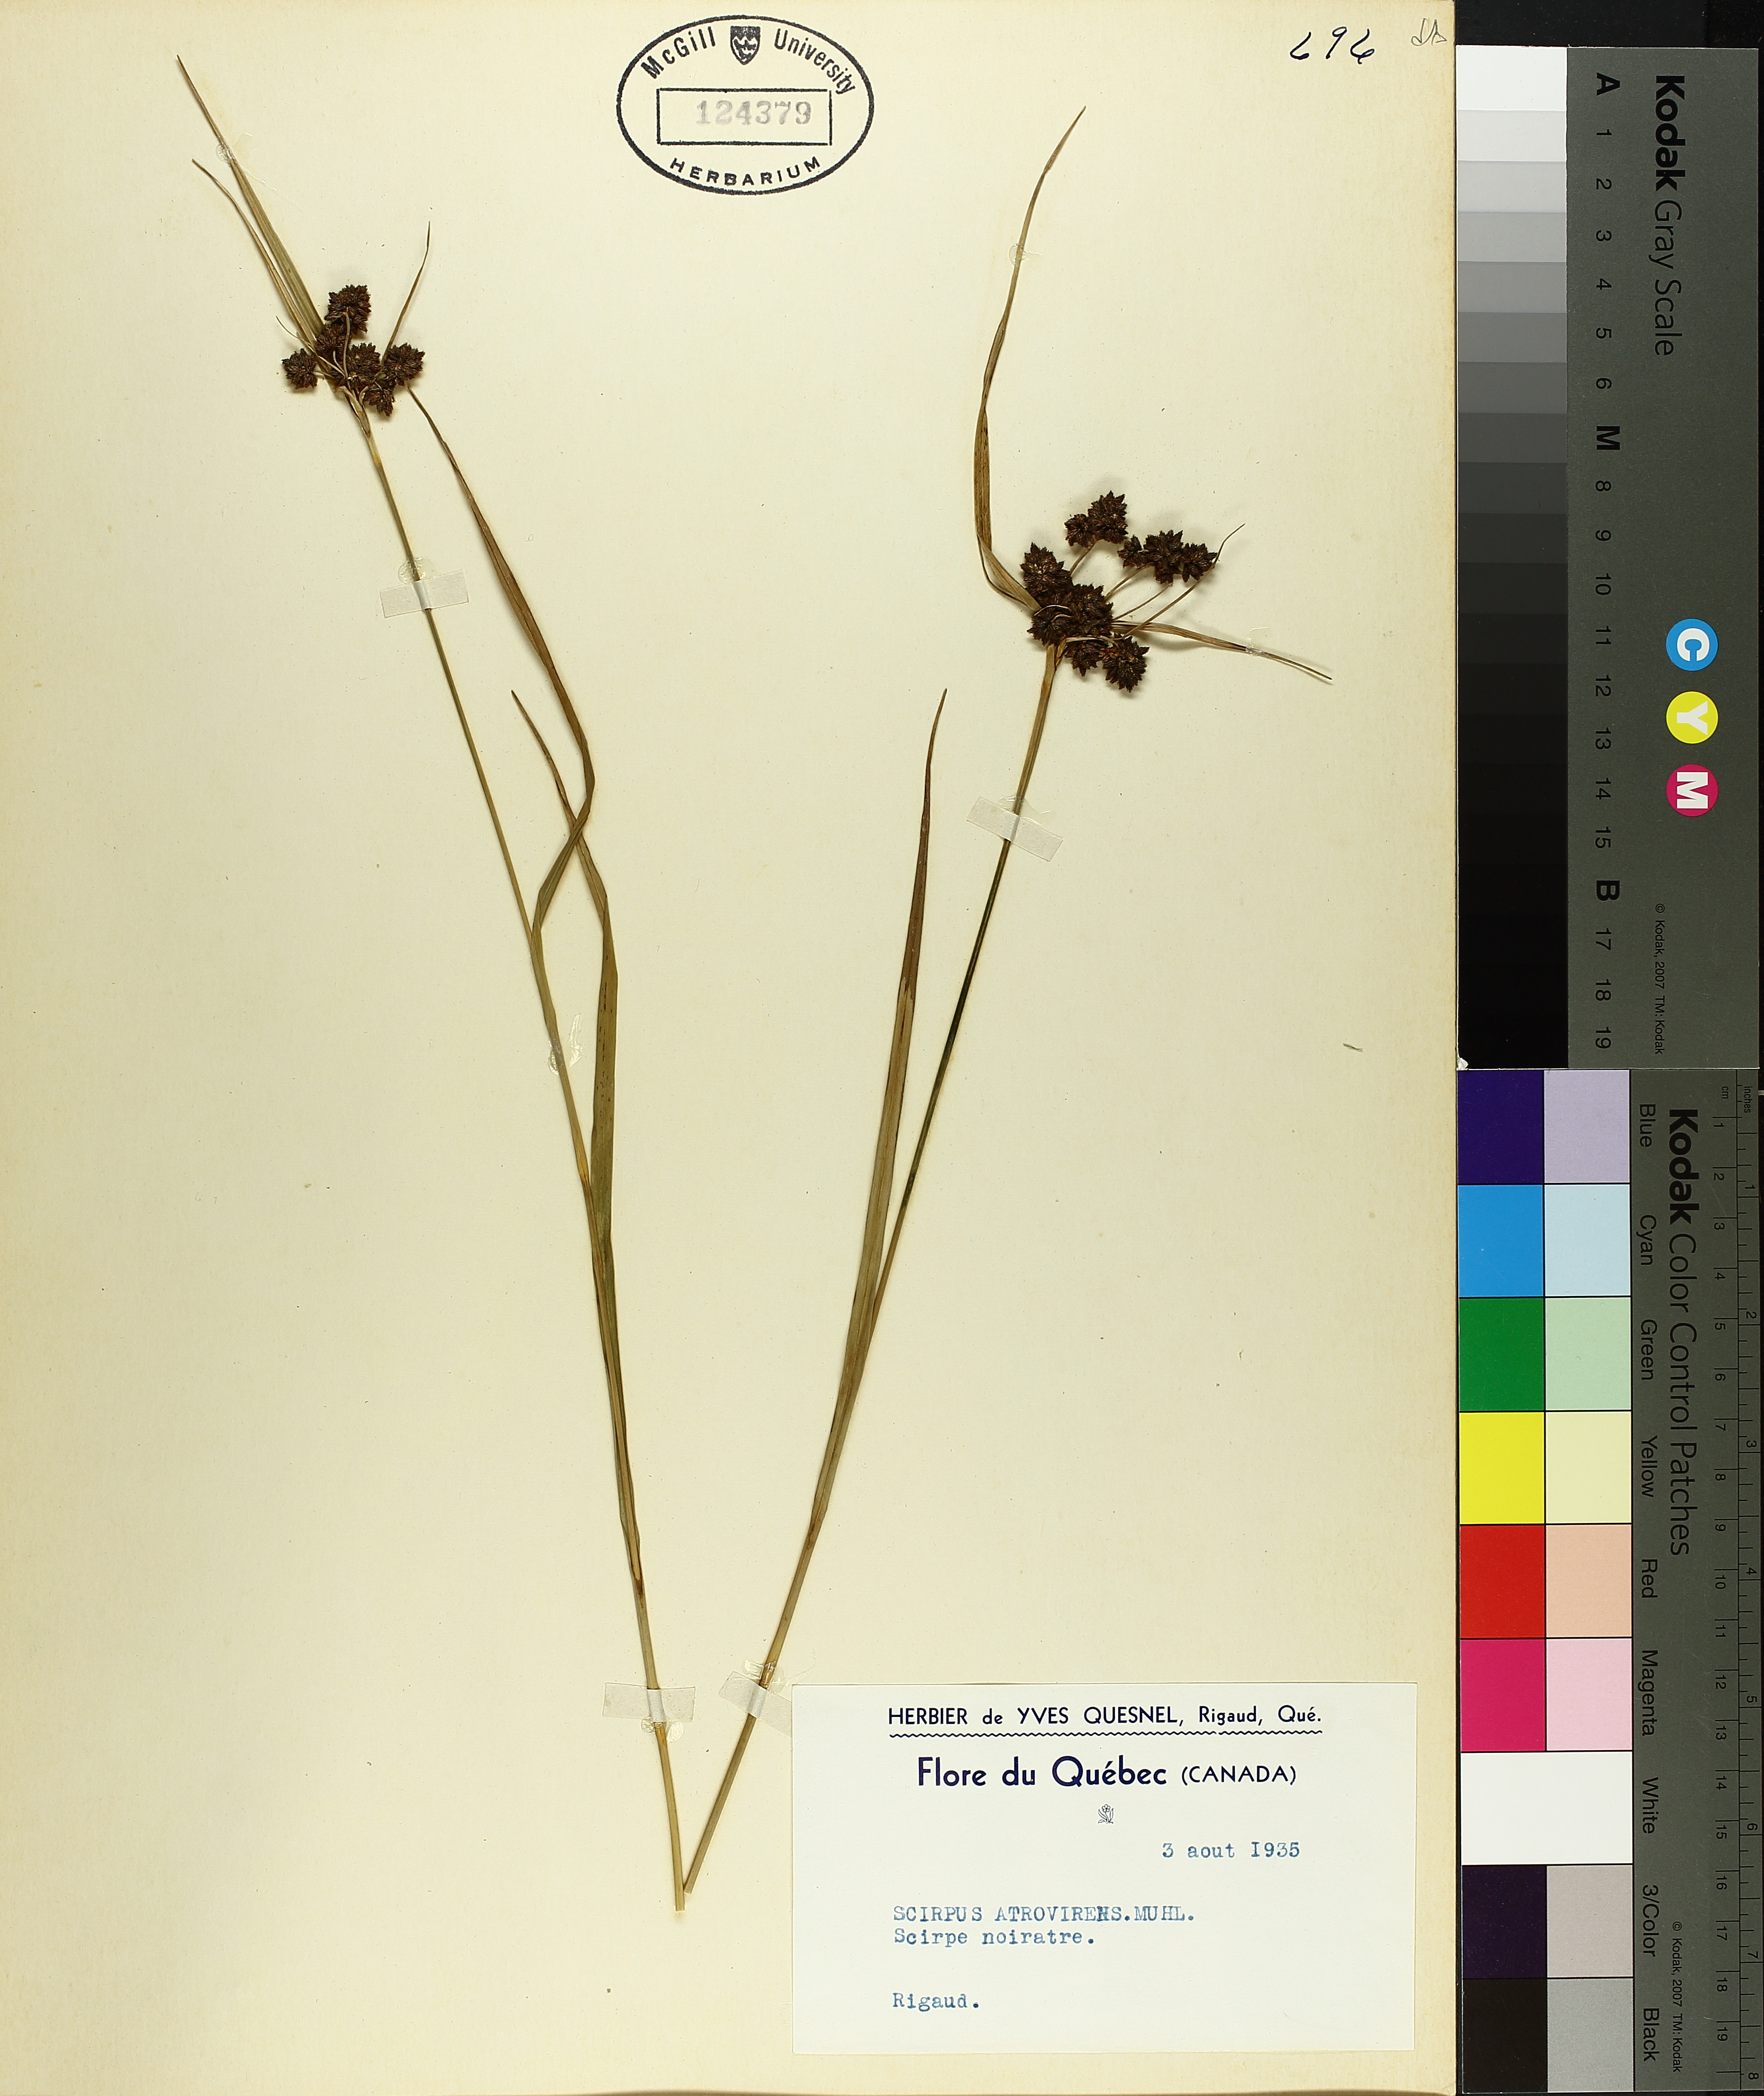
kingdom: Plantae
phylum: Tracheophyta
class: Liliopsida
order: Poales
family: Cyperaceae
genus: Scirpus
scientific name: Scirpus atrovirens
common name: Black bulrush
